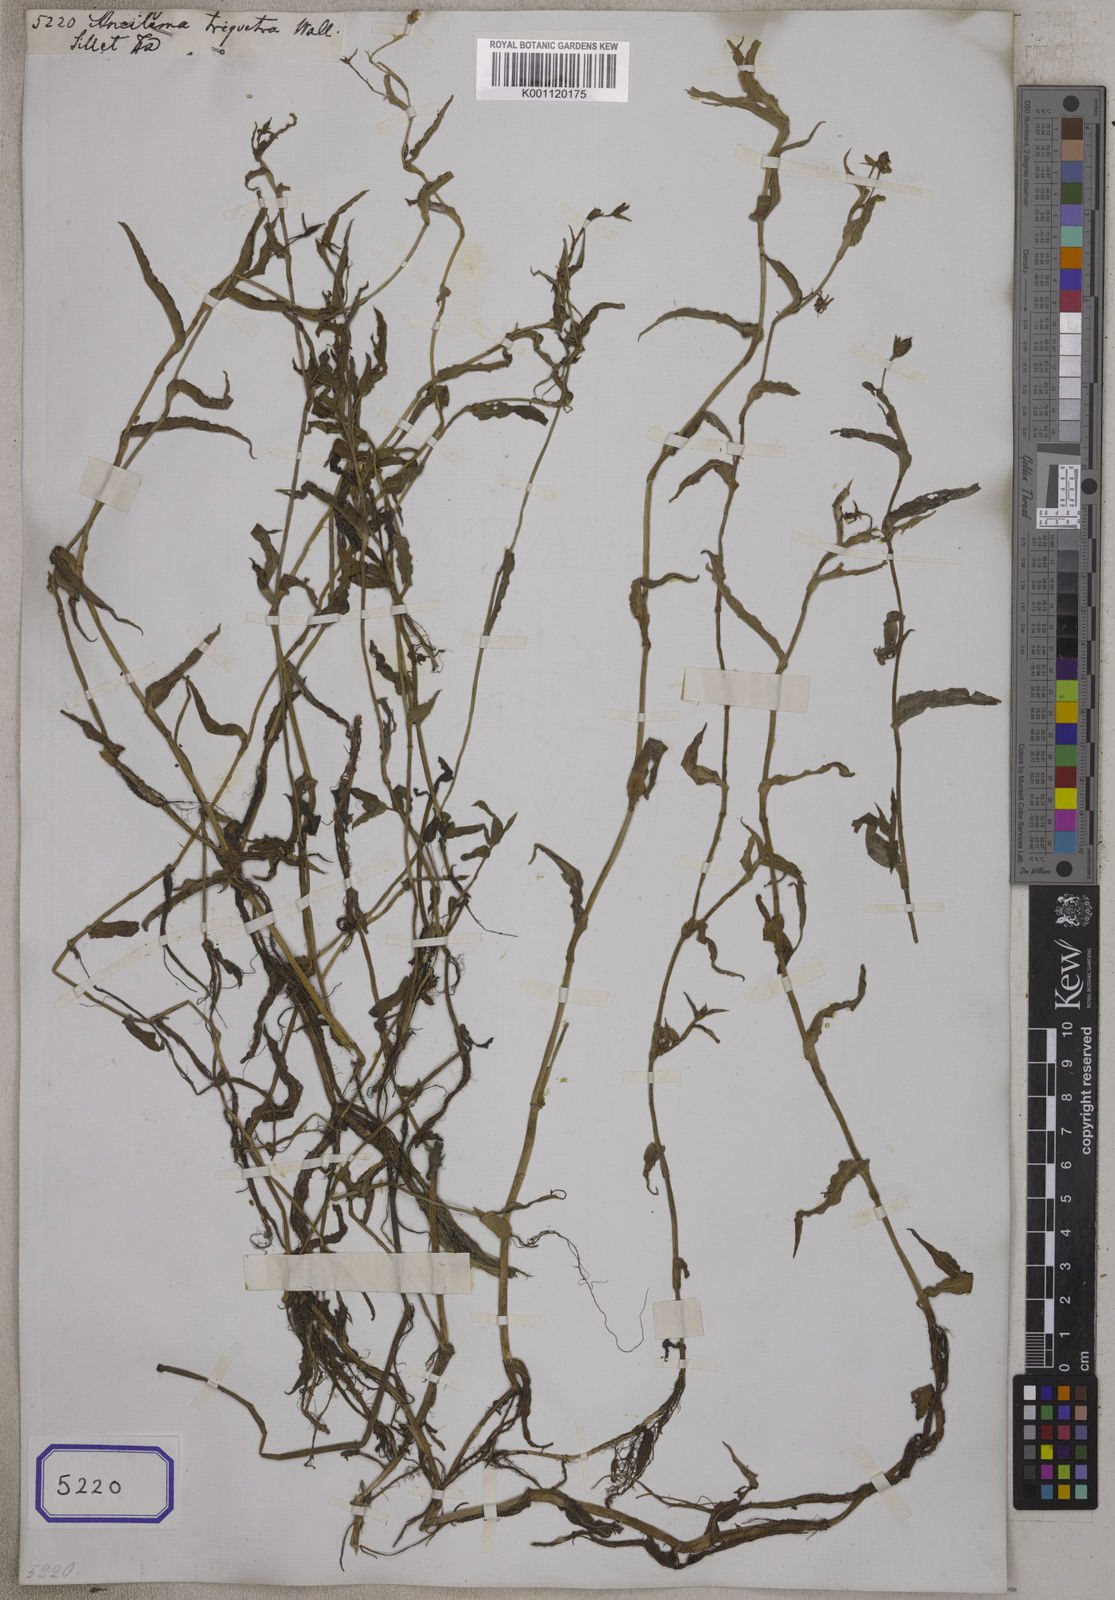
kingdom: Plantae
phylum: Tracheophyta
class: Liliopsida
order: Commelinales
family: Commelinaceae
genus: Aneilema
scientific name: Aneilema
